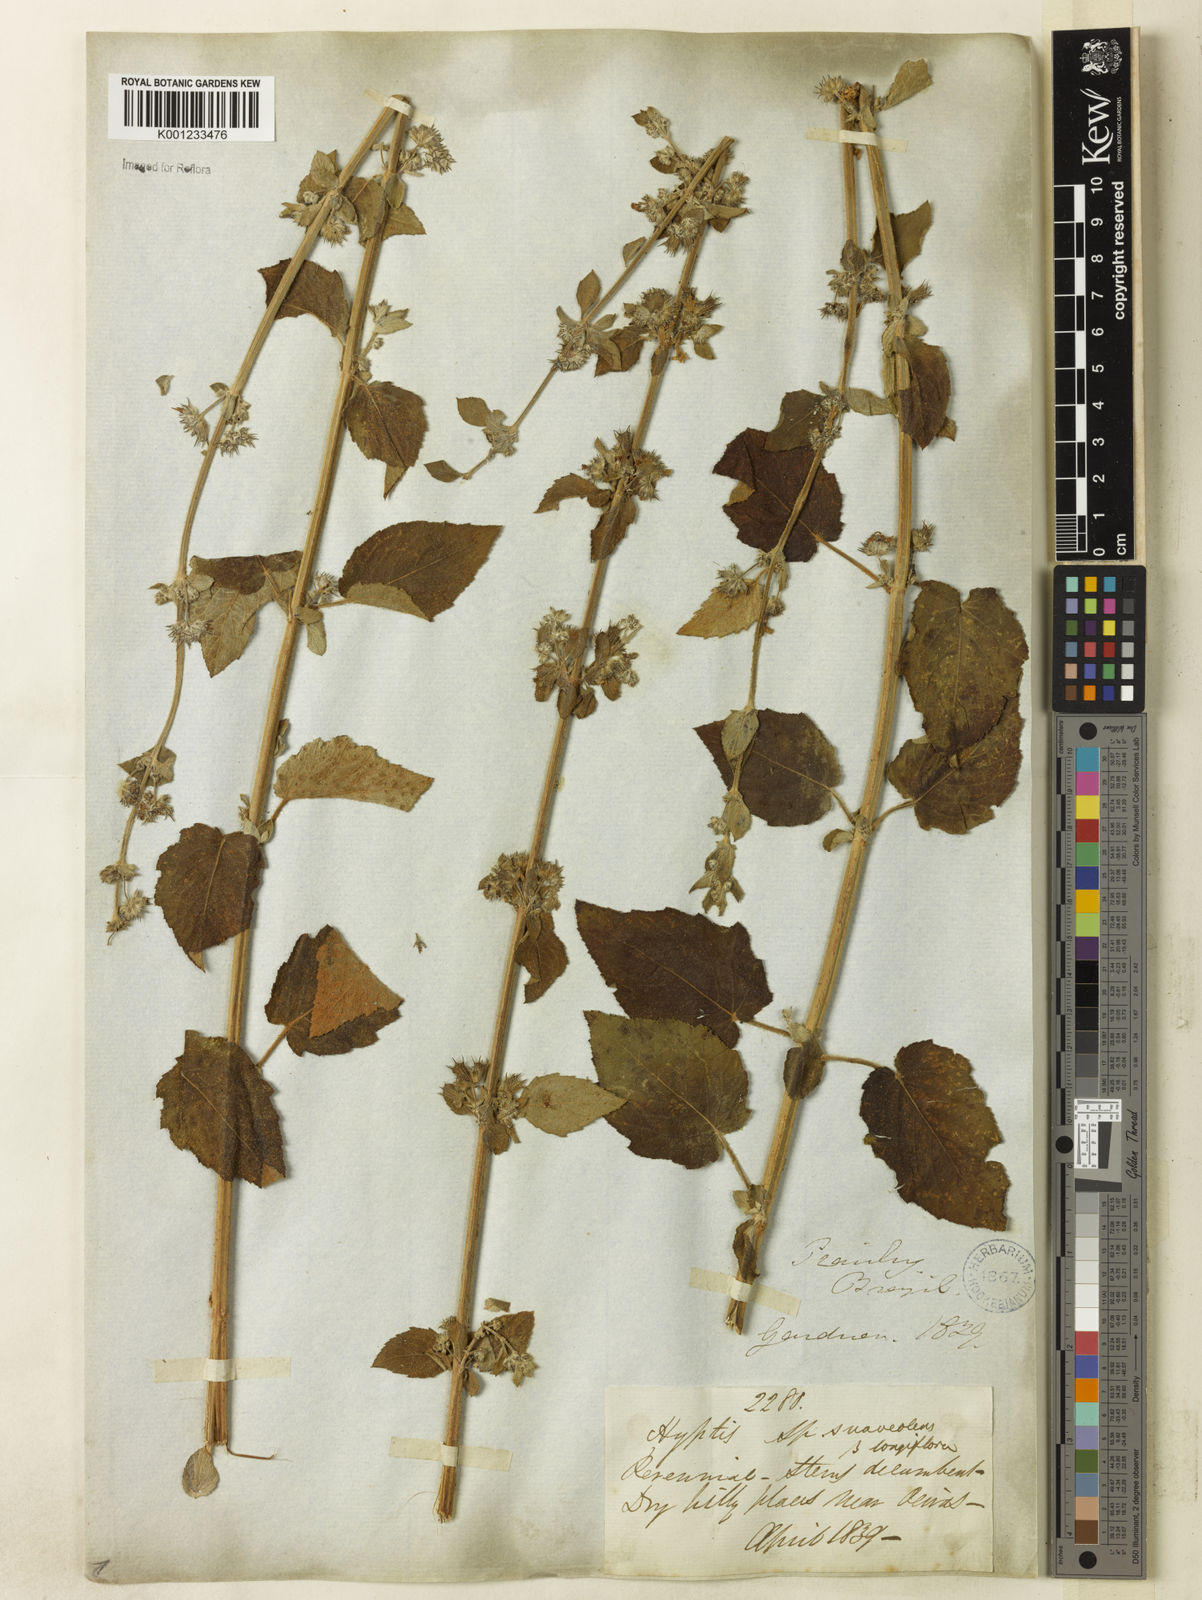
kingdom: Plantae
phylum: Tracheophyta
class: Magnoliopsida
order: Lamiales
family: Lamiaceae
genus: Mesosphaerum
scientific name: Mesosphaerum suaveolens
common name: Pignut
